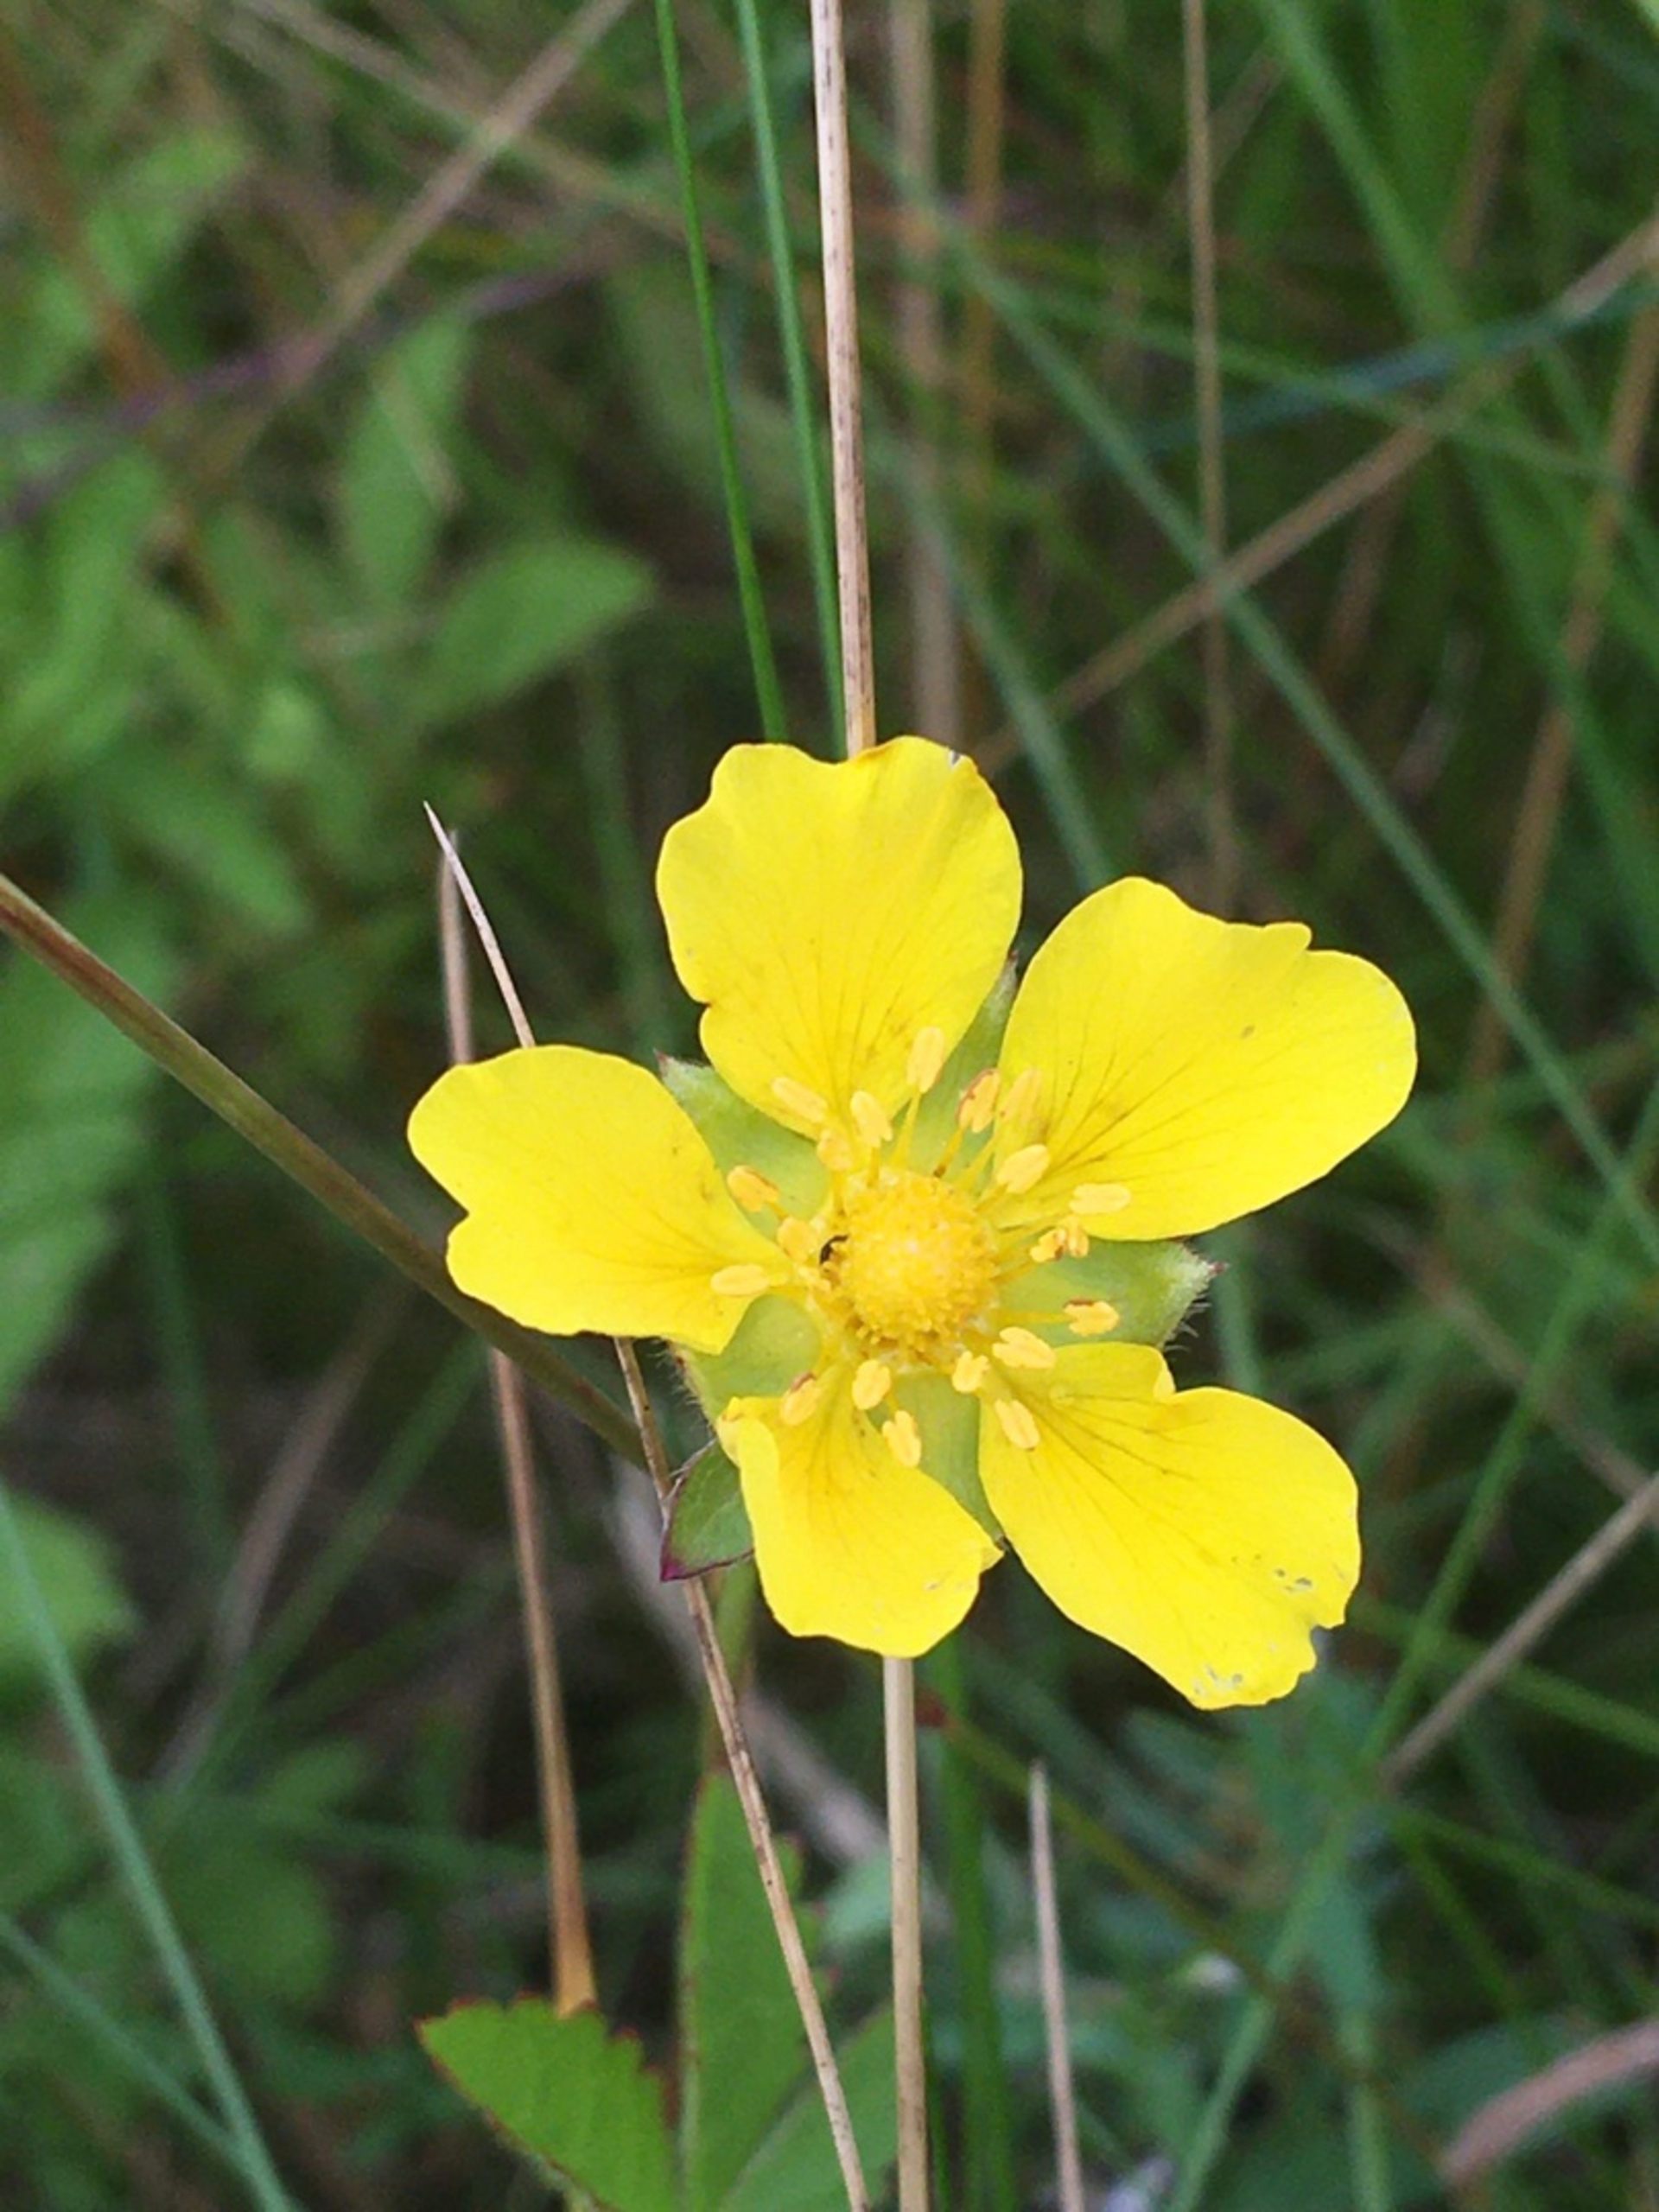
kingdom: Plantae
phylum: Tracheophyta
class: Magnoliopsida
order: Rosales
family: Rosaceae
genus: Potentilla
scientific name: Potentilla reptans
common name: Krybende potentil
